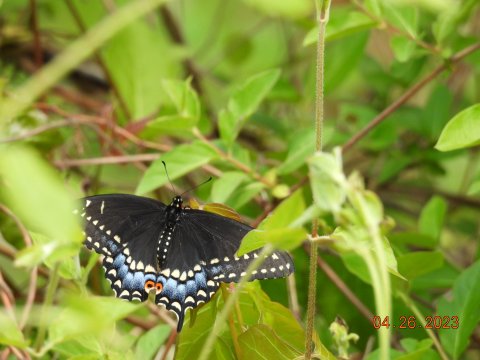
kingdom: Animalia
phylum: Arthropoda
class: Insecta
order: Lepidoptera
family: Papilionidae
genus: Papilio
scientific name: Papilio polyxenes
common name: Black Swallowtail
